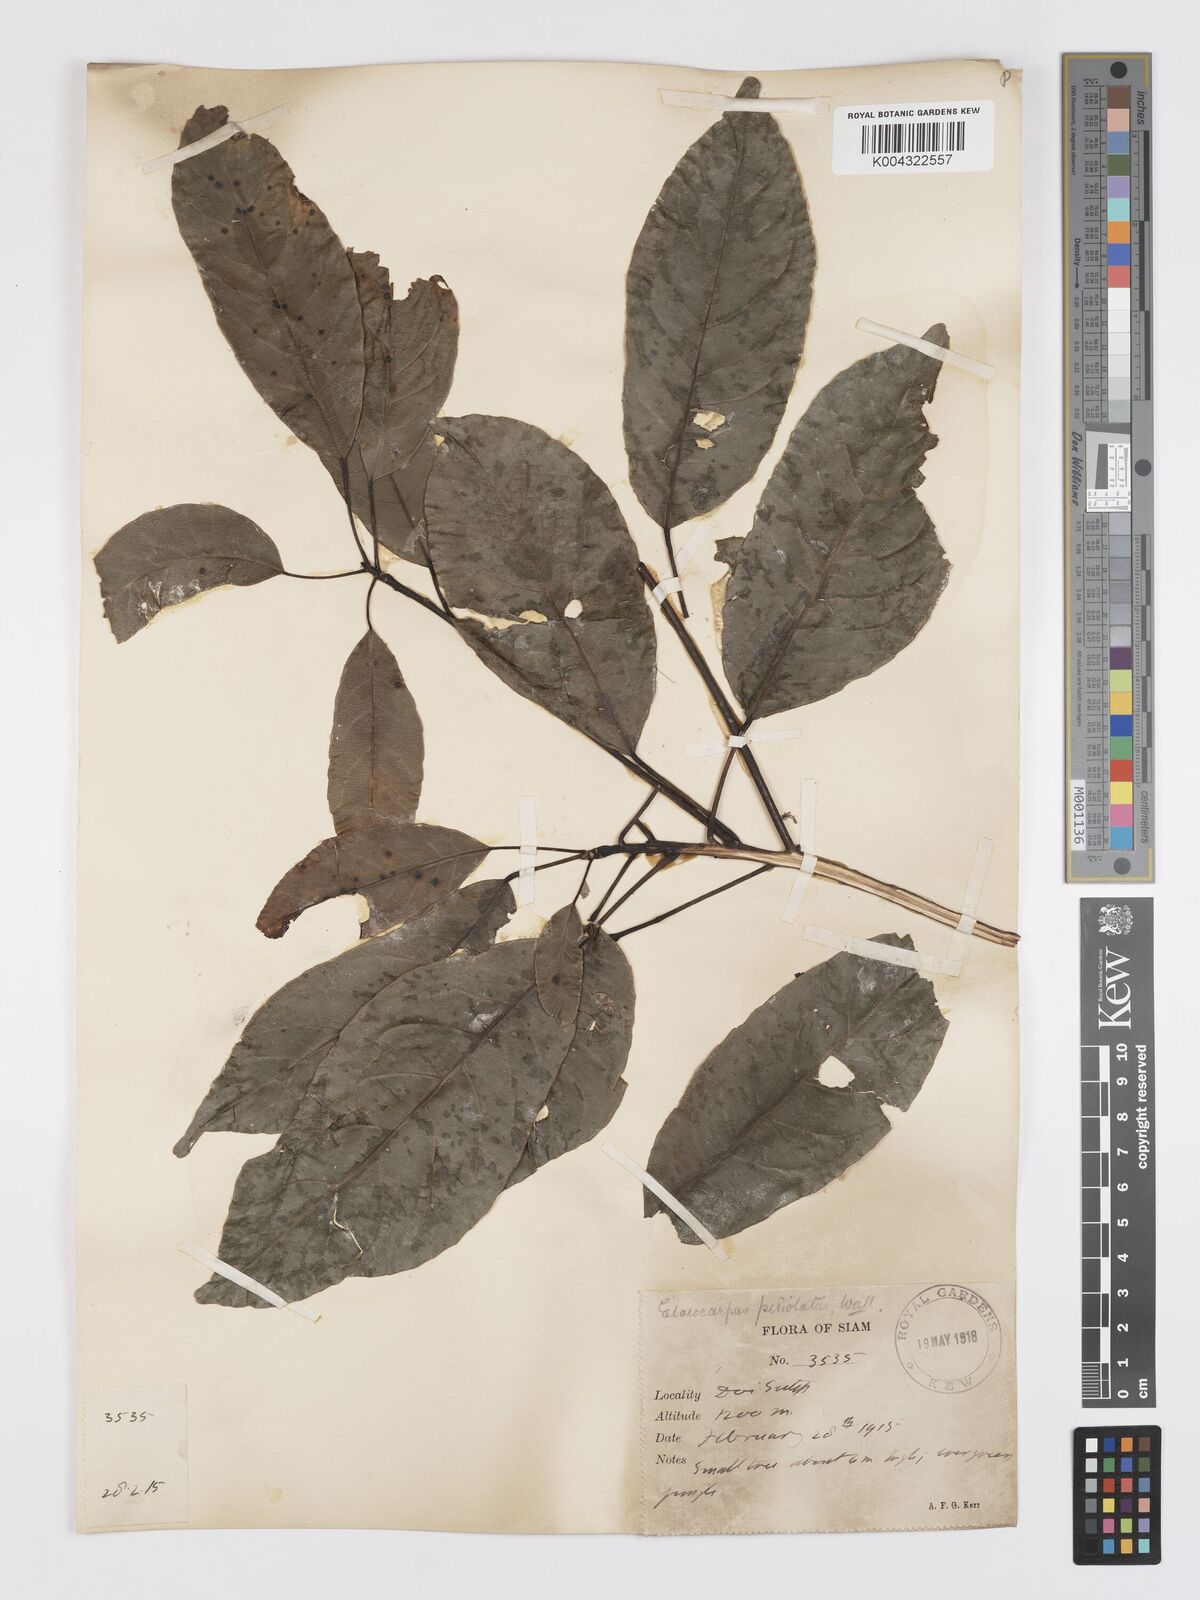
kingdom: Plantae
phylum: Tracheophyta
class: Magnoliopsida
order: Oxalidales
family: Elaeocarpaceae
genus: Elaeocarpus
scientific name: Elaeocarpus petiolatus
